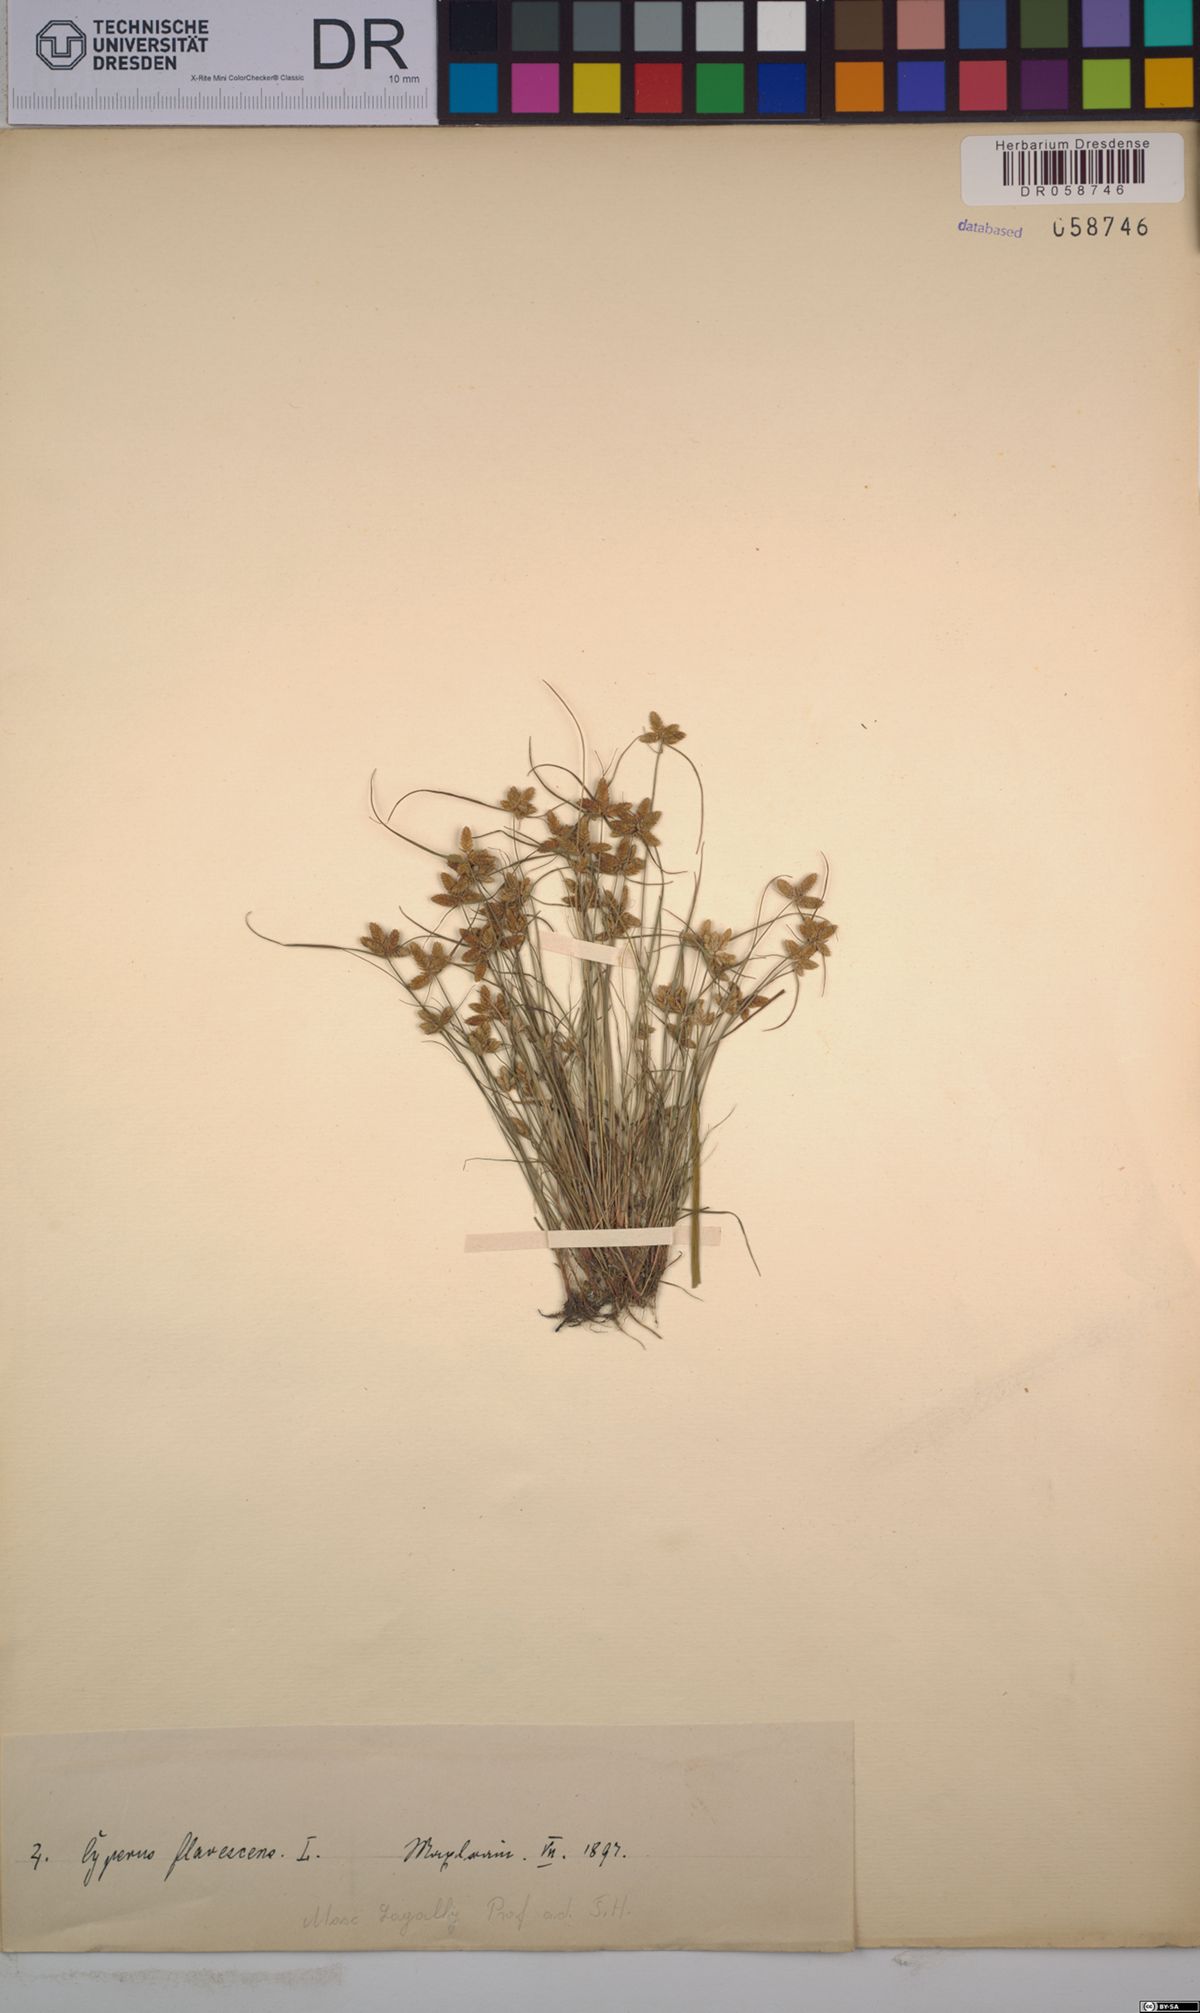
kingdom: Plantae
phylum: Tracheophyta
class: Liliopsida
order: Poales
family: Cyperaceae
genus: Cyperus
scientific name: Cyperus flavescens
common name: Yellow galingale
